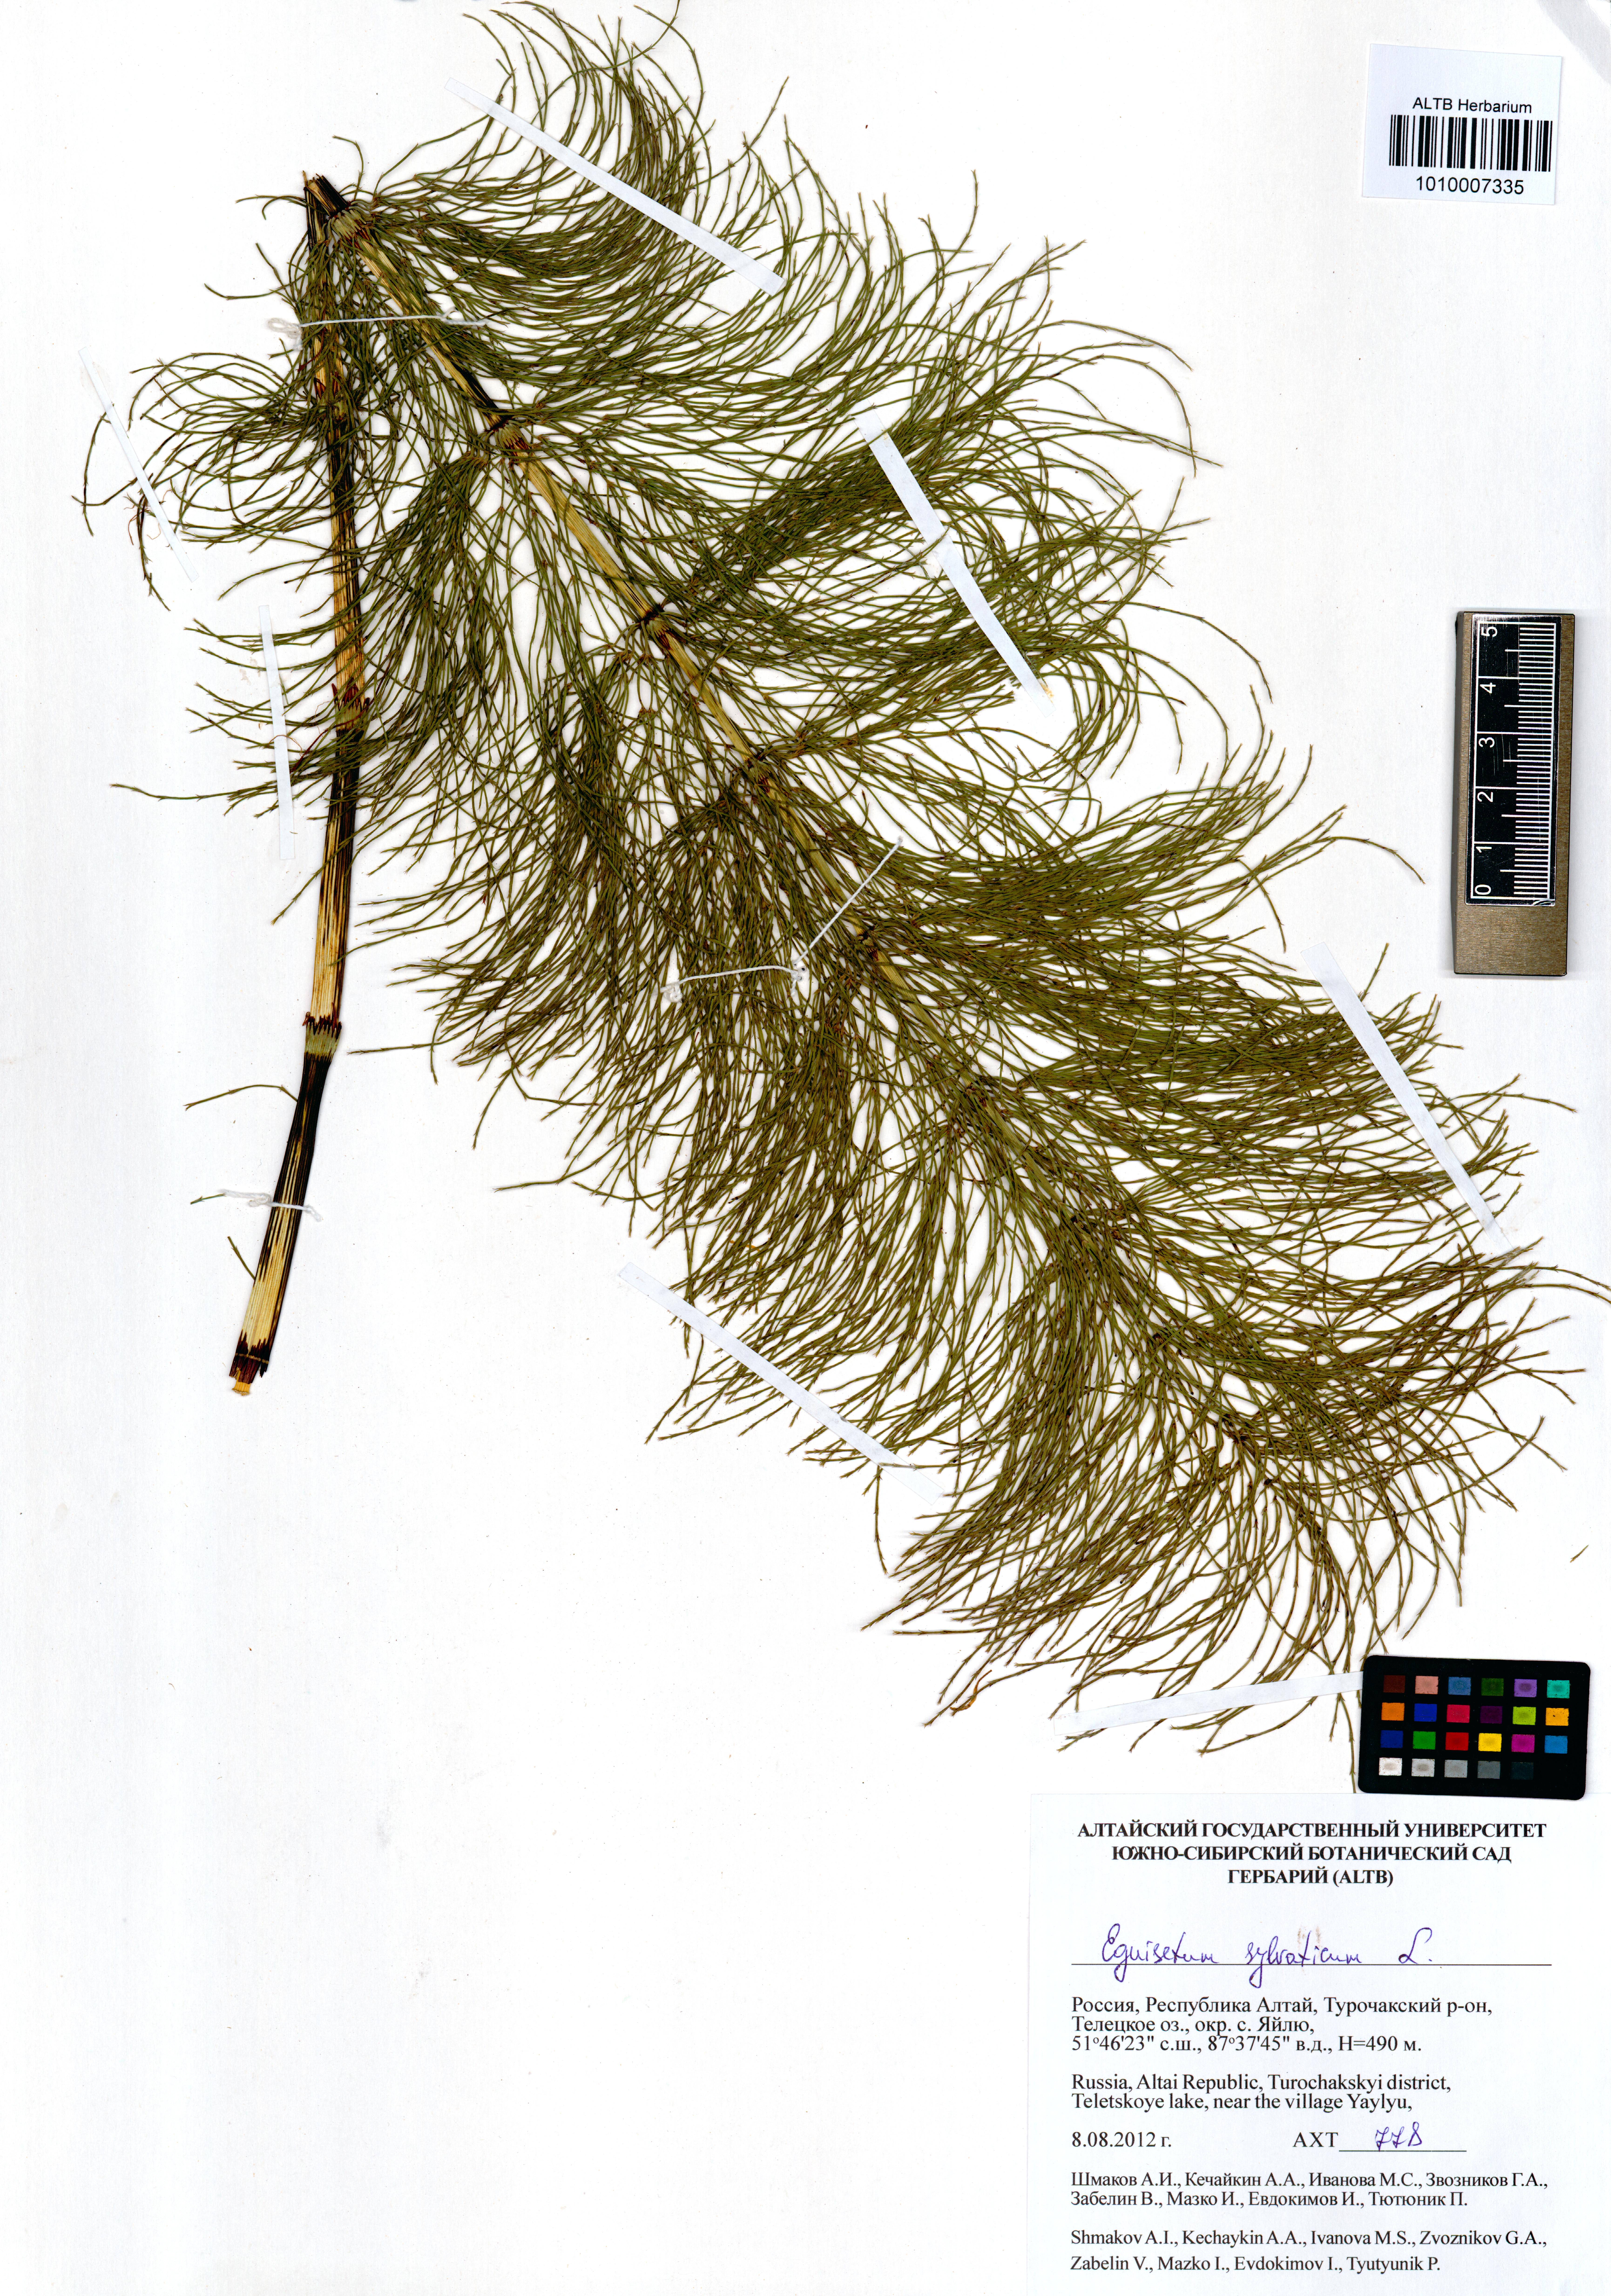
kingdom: Plantae
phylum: Tracheophyta
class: Polypodiopsida
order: Equisetales
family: Equisetaceae
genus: Equisetum
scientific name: Equisetum sylvaticum
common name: Wood horsetail
